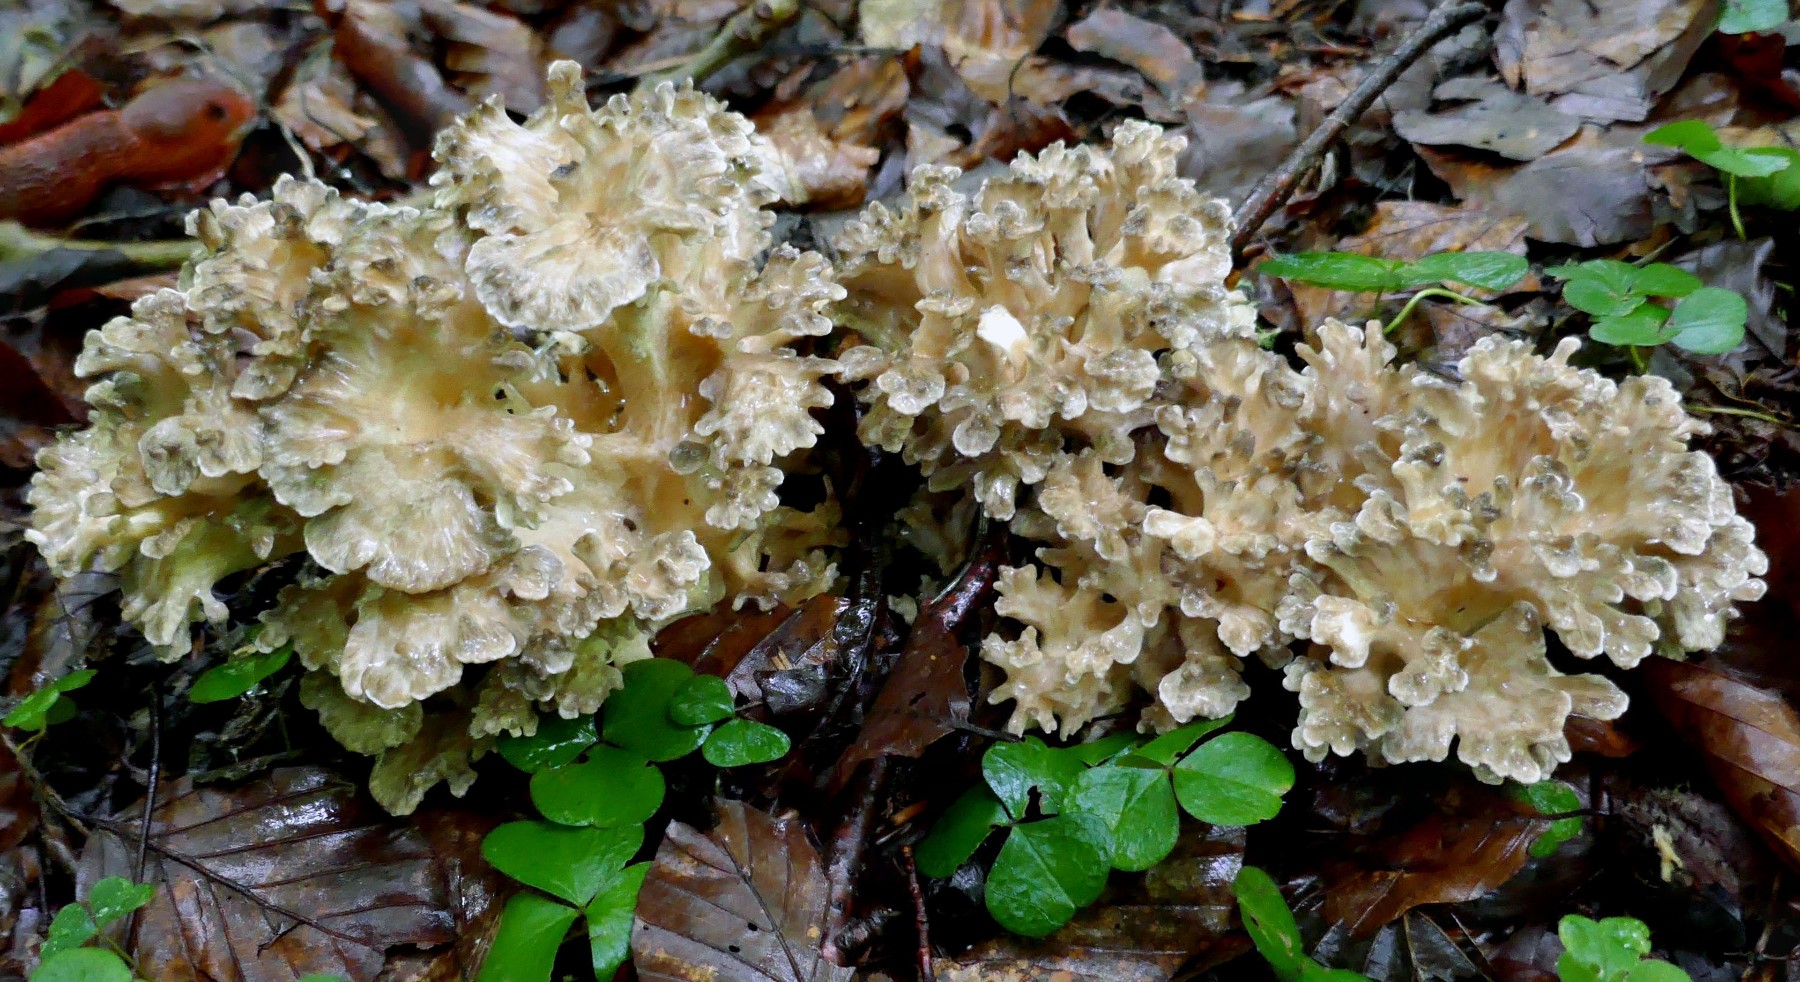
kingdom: Fungi
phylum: Basidiomycota
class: Agaricomycetes
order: Polyporales
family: Grifolaceae
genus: Grifola
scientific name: Grifola frondosa
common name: tueporesvamp
